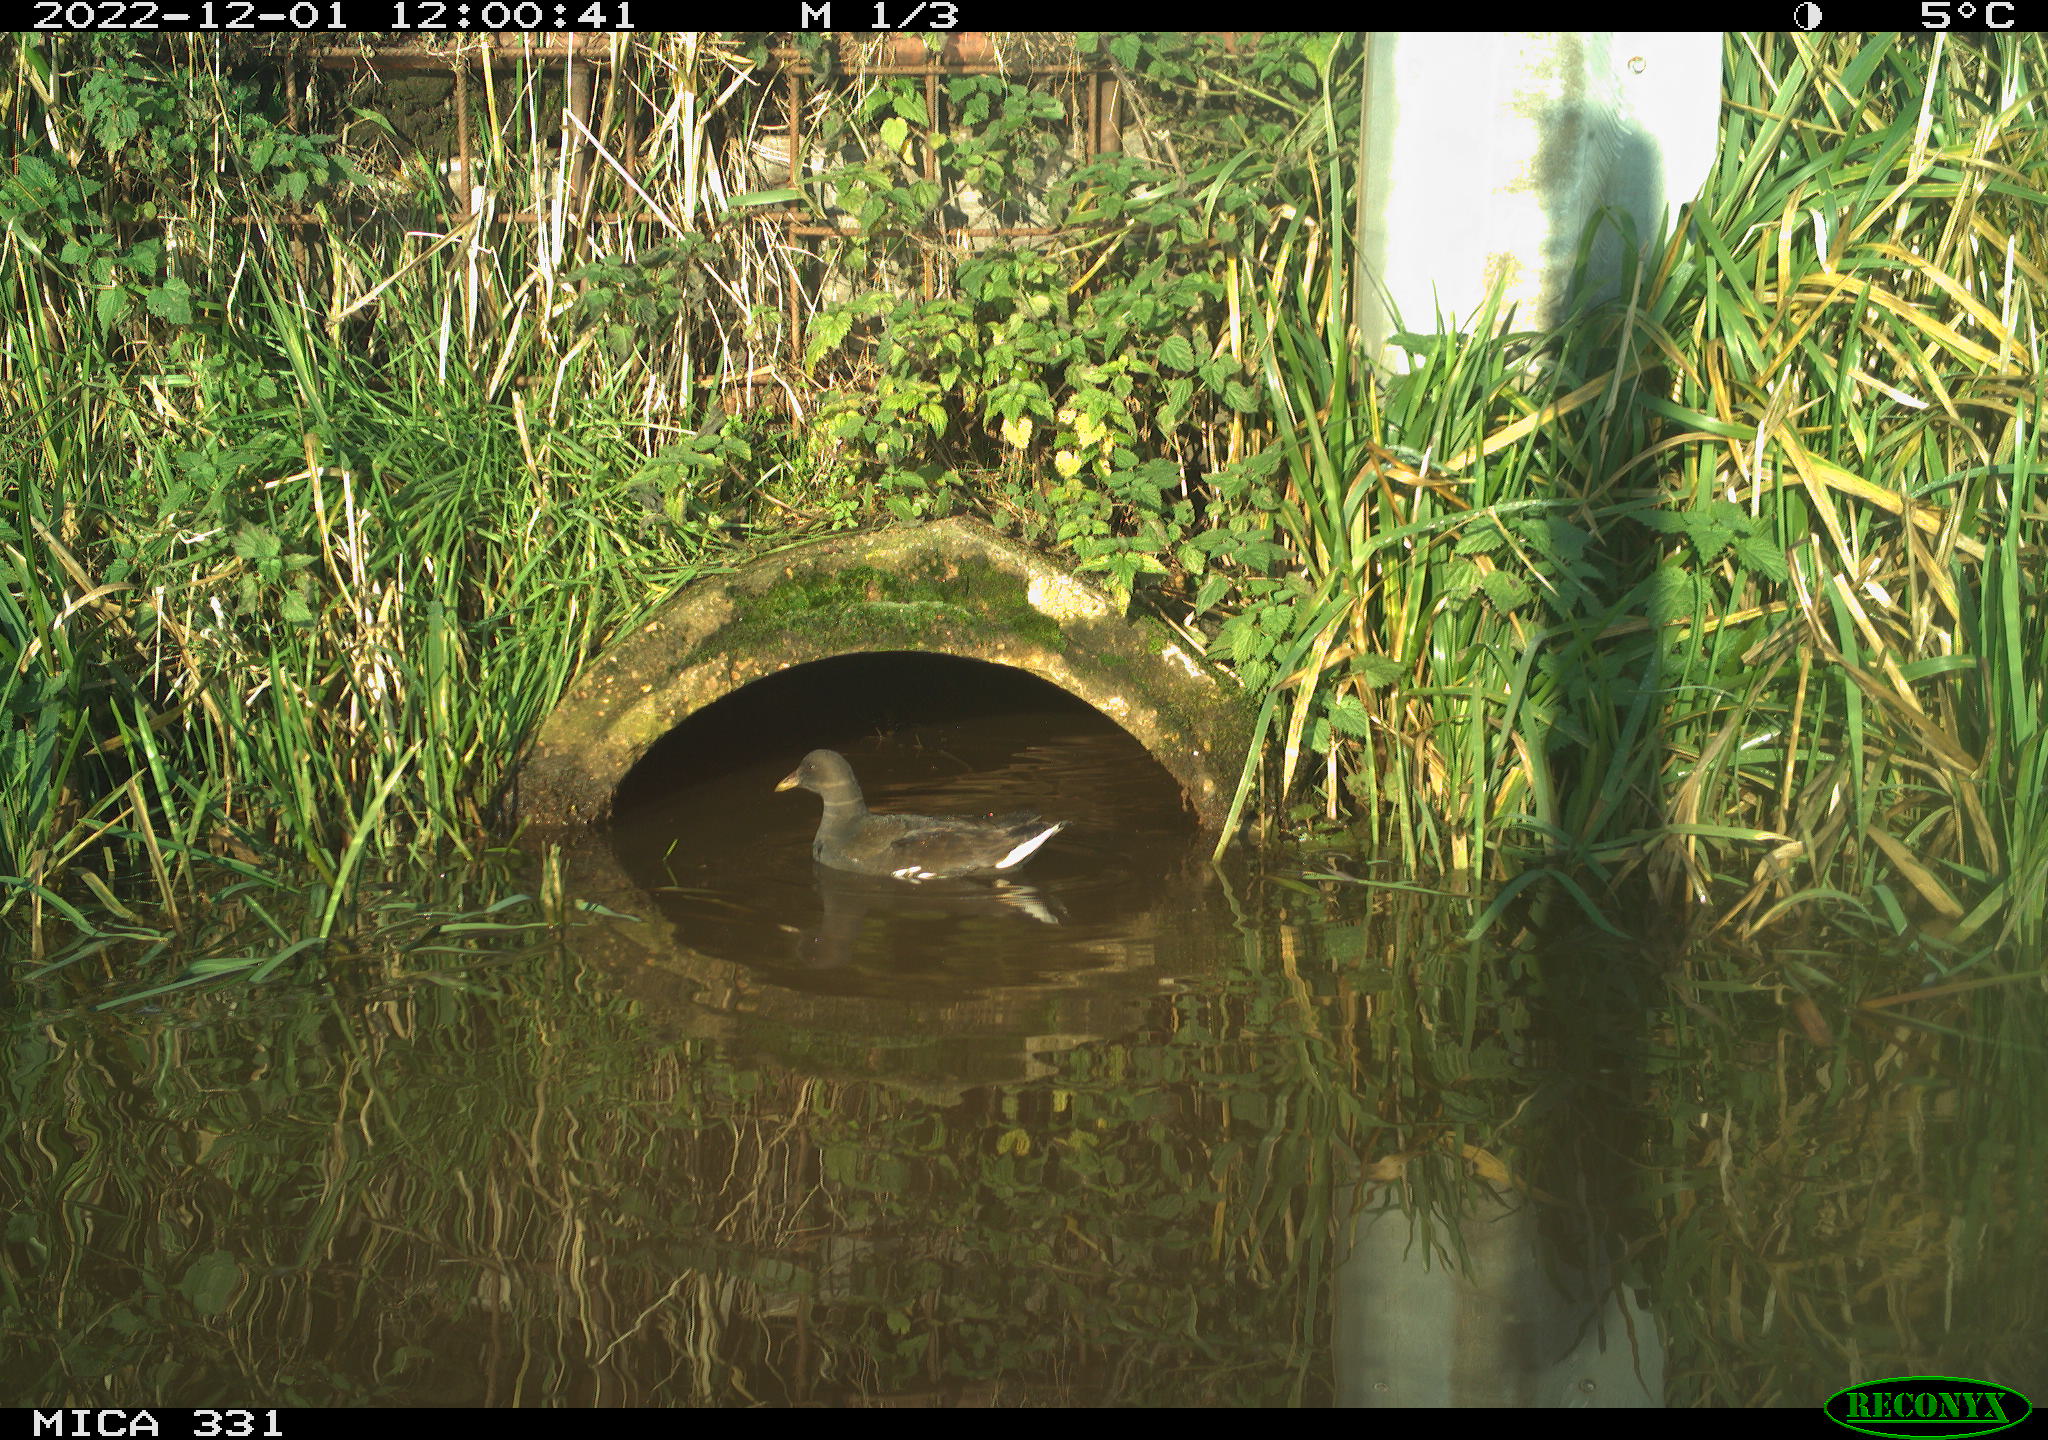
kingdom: Animalia
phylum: Chordata
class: Aves
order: Gruiformes
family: Rallidae
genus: Gallinula
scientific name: Gallinula chloropus
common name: Common moorhen
